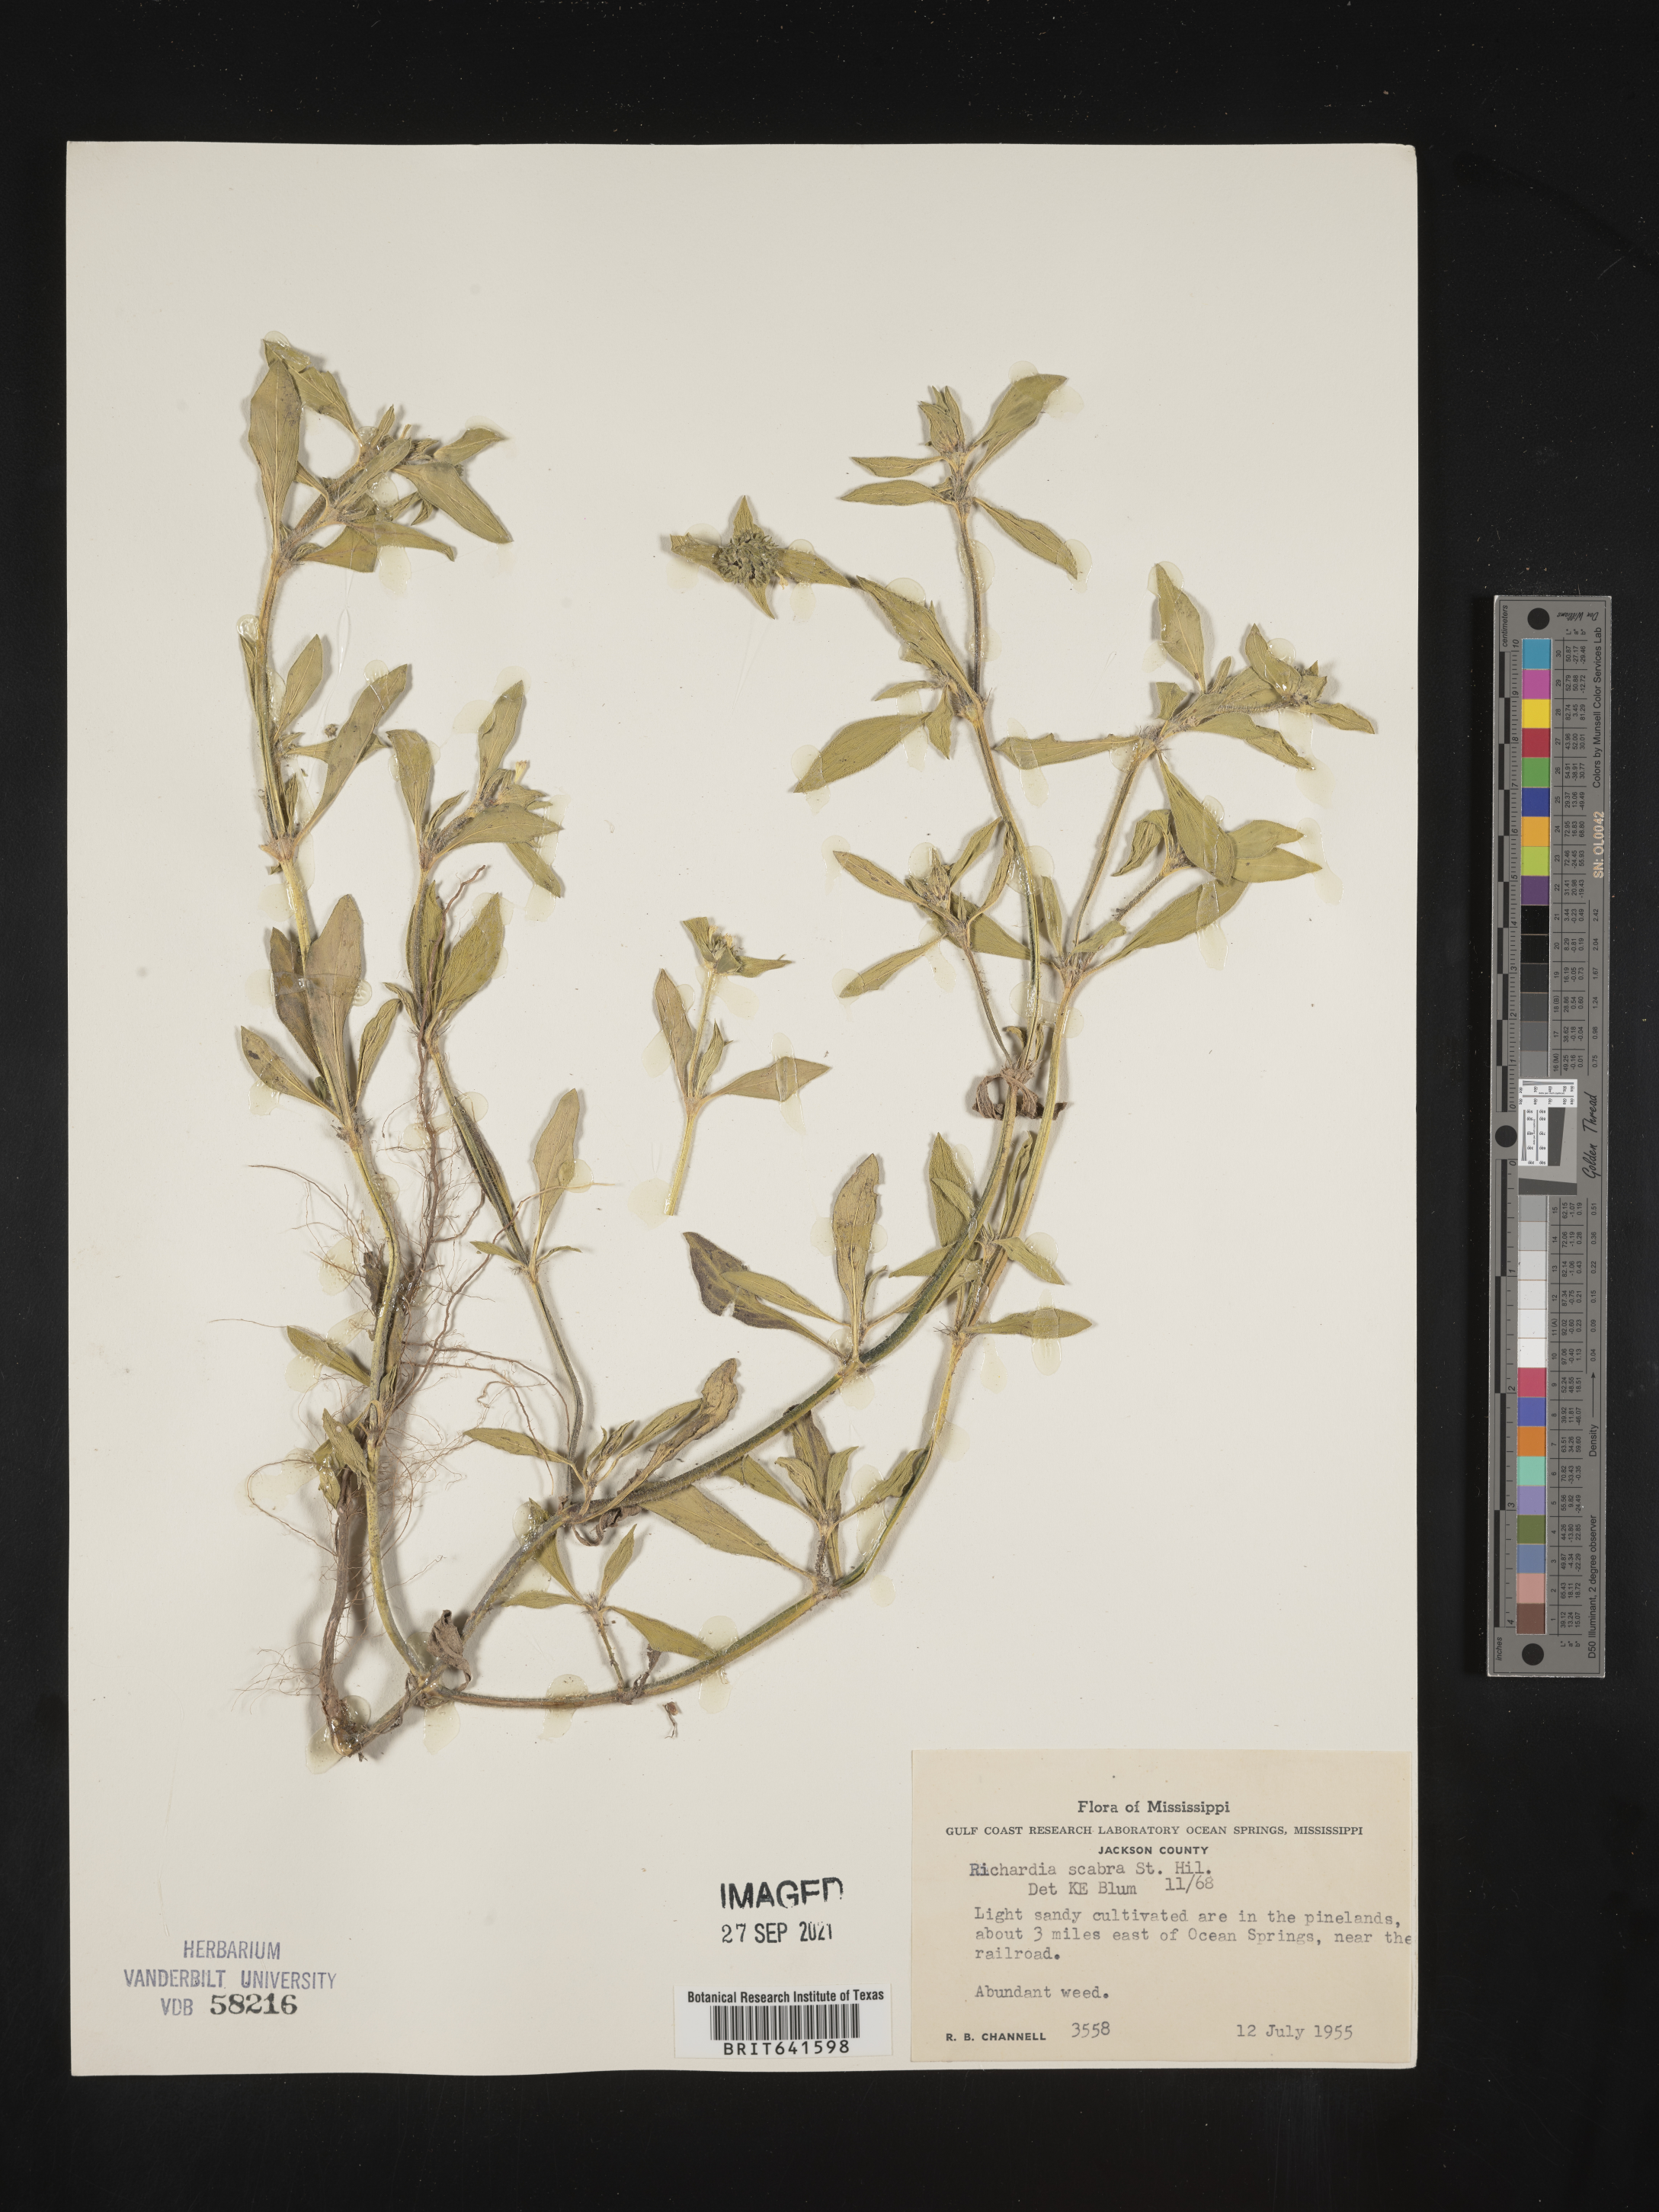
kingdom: Plantae
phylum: Tracheophyta
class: Magnoliopsida
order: Gentianales
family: Rubiaceae
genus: Richardia
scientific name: Richardia scabra
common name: Rough mexican clover
